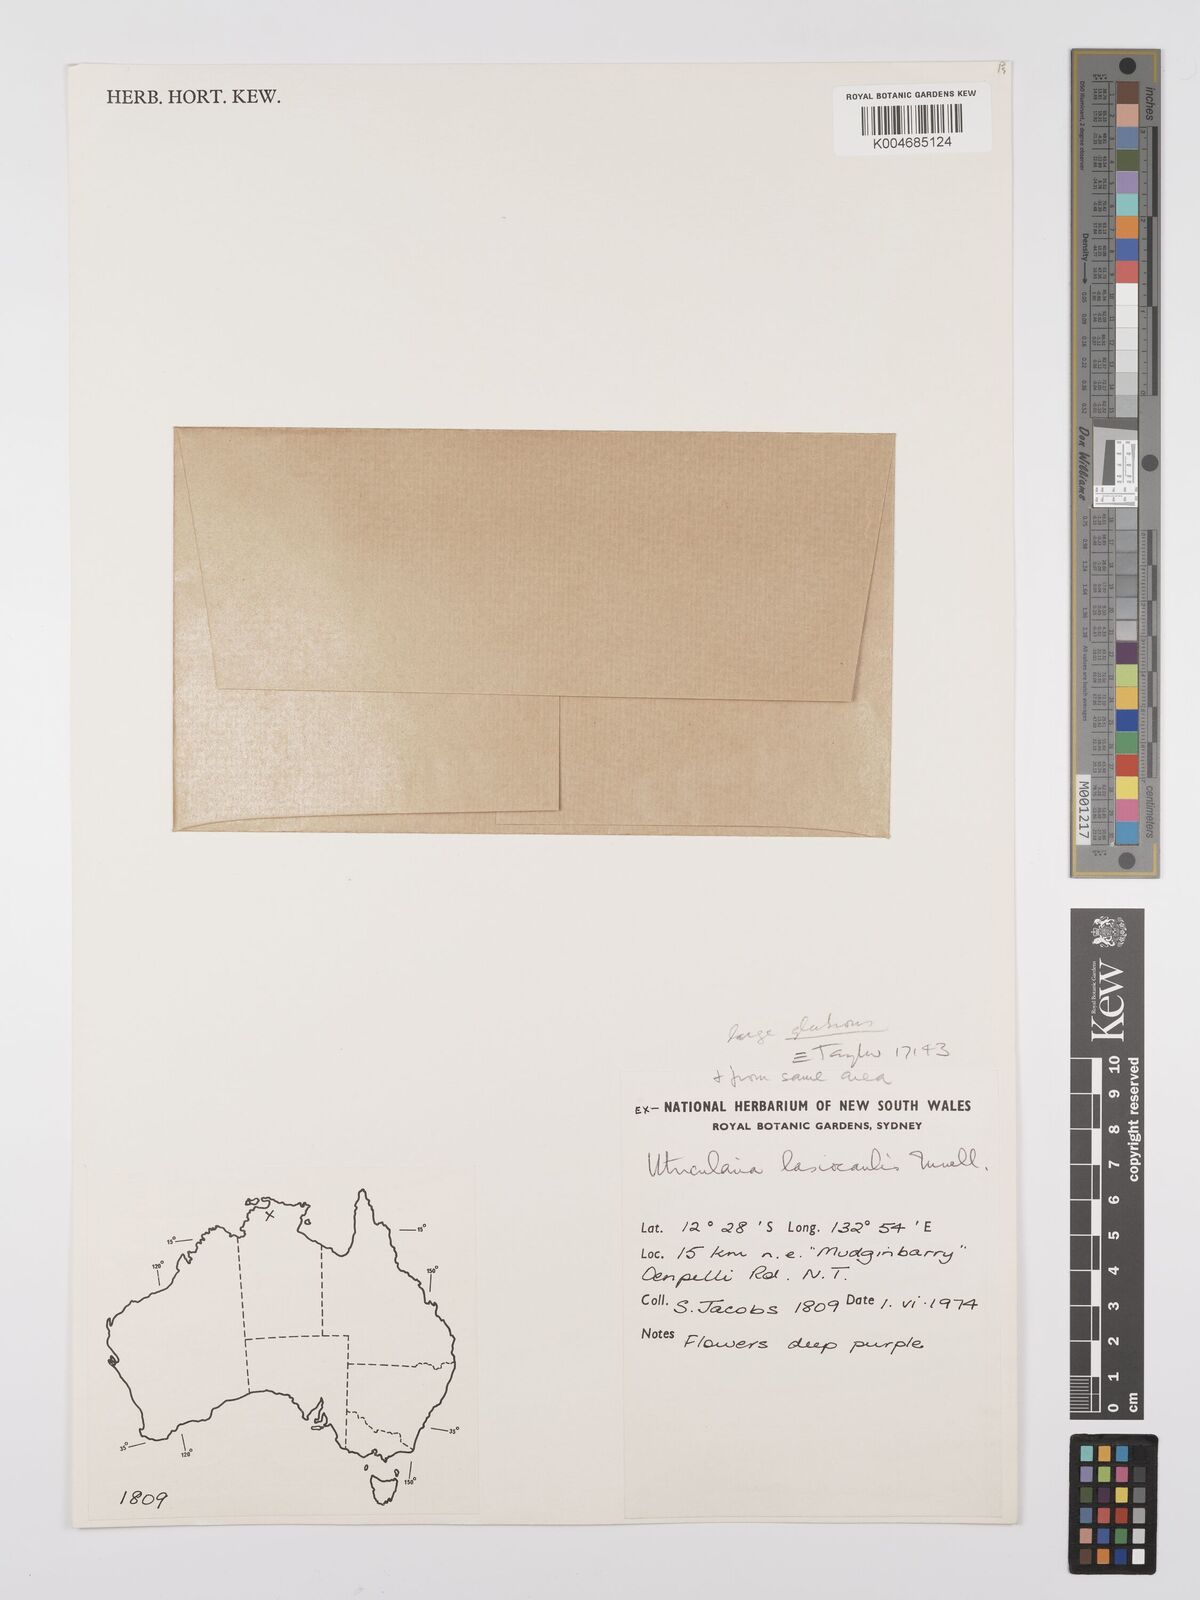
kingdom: Plantae
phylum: Tracheophyta
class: Magnoliopsida
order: Lamiales
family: Lentibulariaceae
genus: Utricularia
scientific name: Utricularia lasiocaulis
